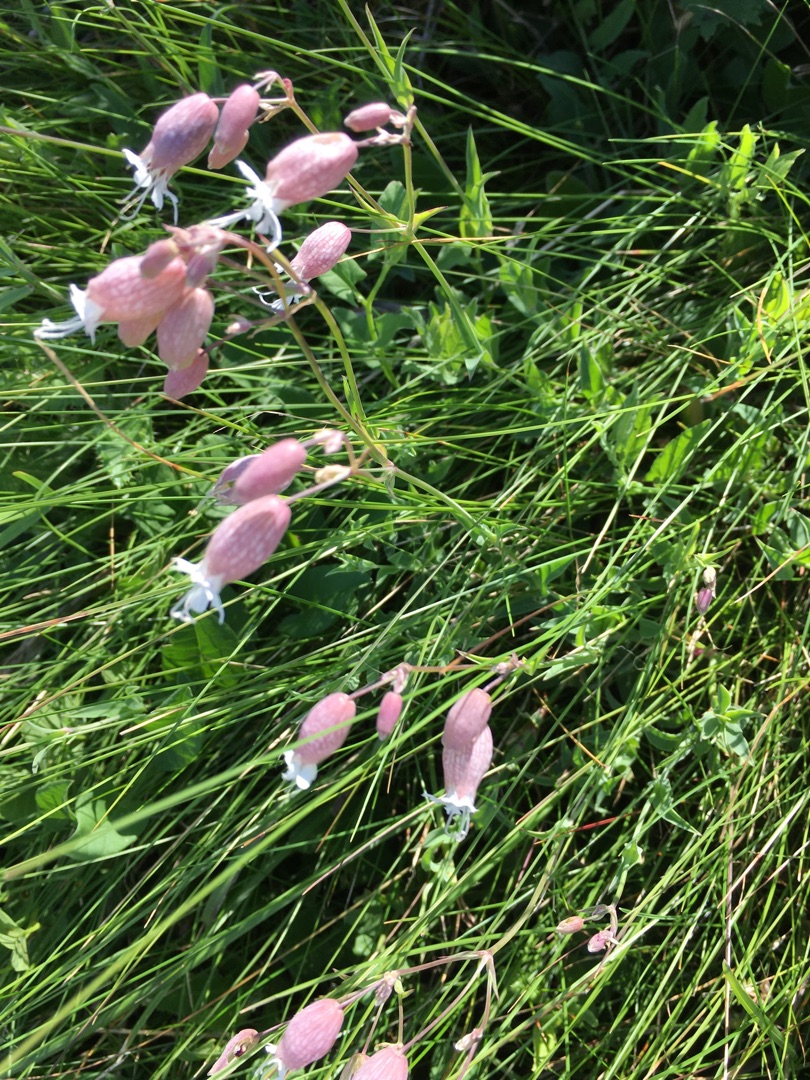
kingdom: Plantae
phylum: Tracheophyta
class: Magnoliopsida
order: Caryophyllales
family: Caryophyllaceae
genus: Silene
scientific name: Silene vulgaris
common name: Blæresmælde
